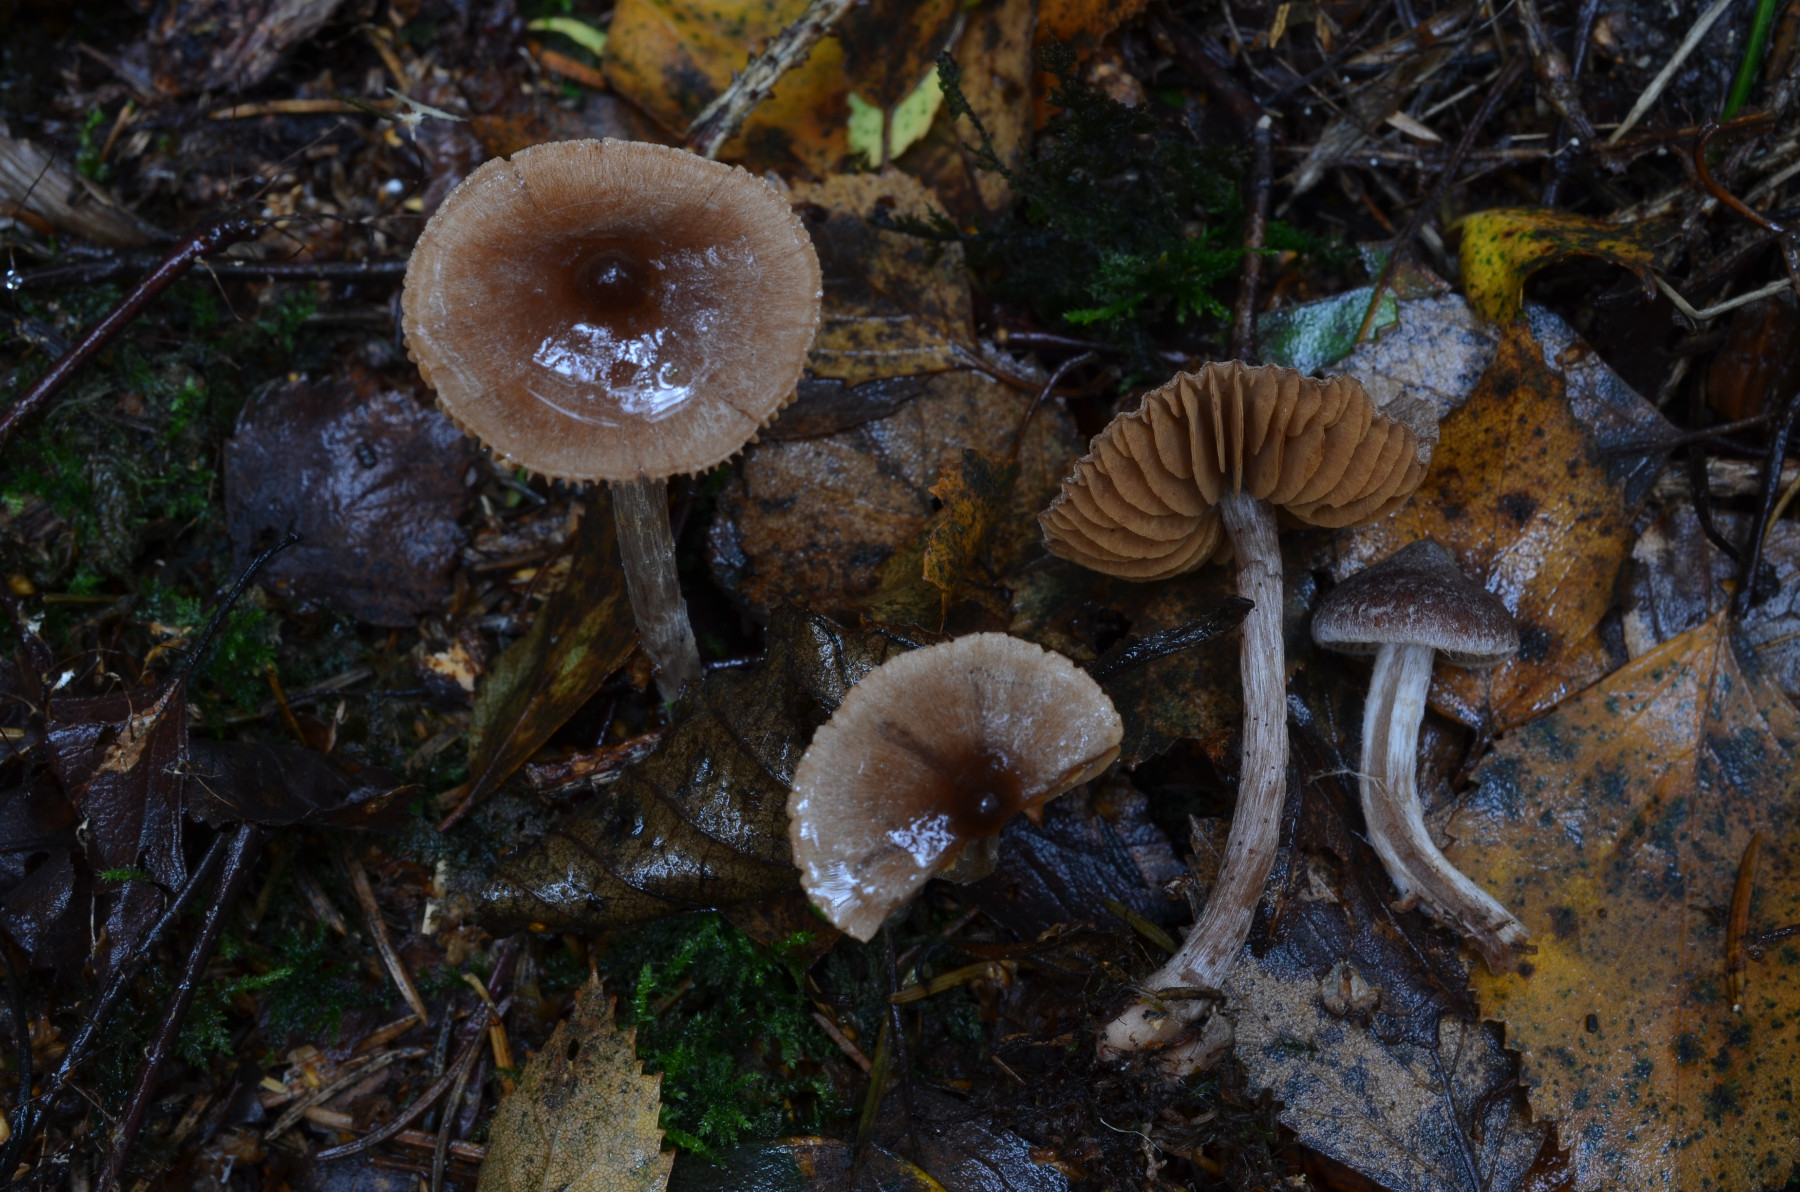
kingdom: Fungi
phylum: Basidiomycota
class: Agaricomycetes
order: Agaricales
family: Cortinariaceae
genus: Cortinarius
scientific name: Cortinarius hirtus
